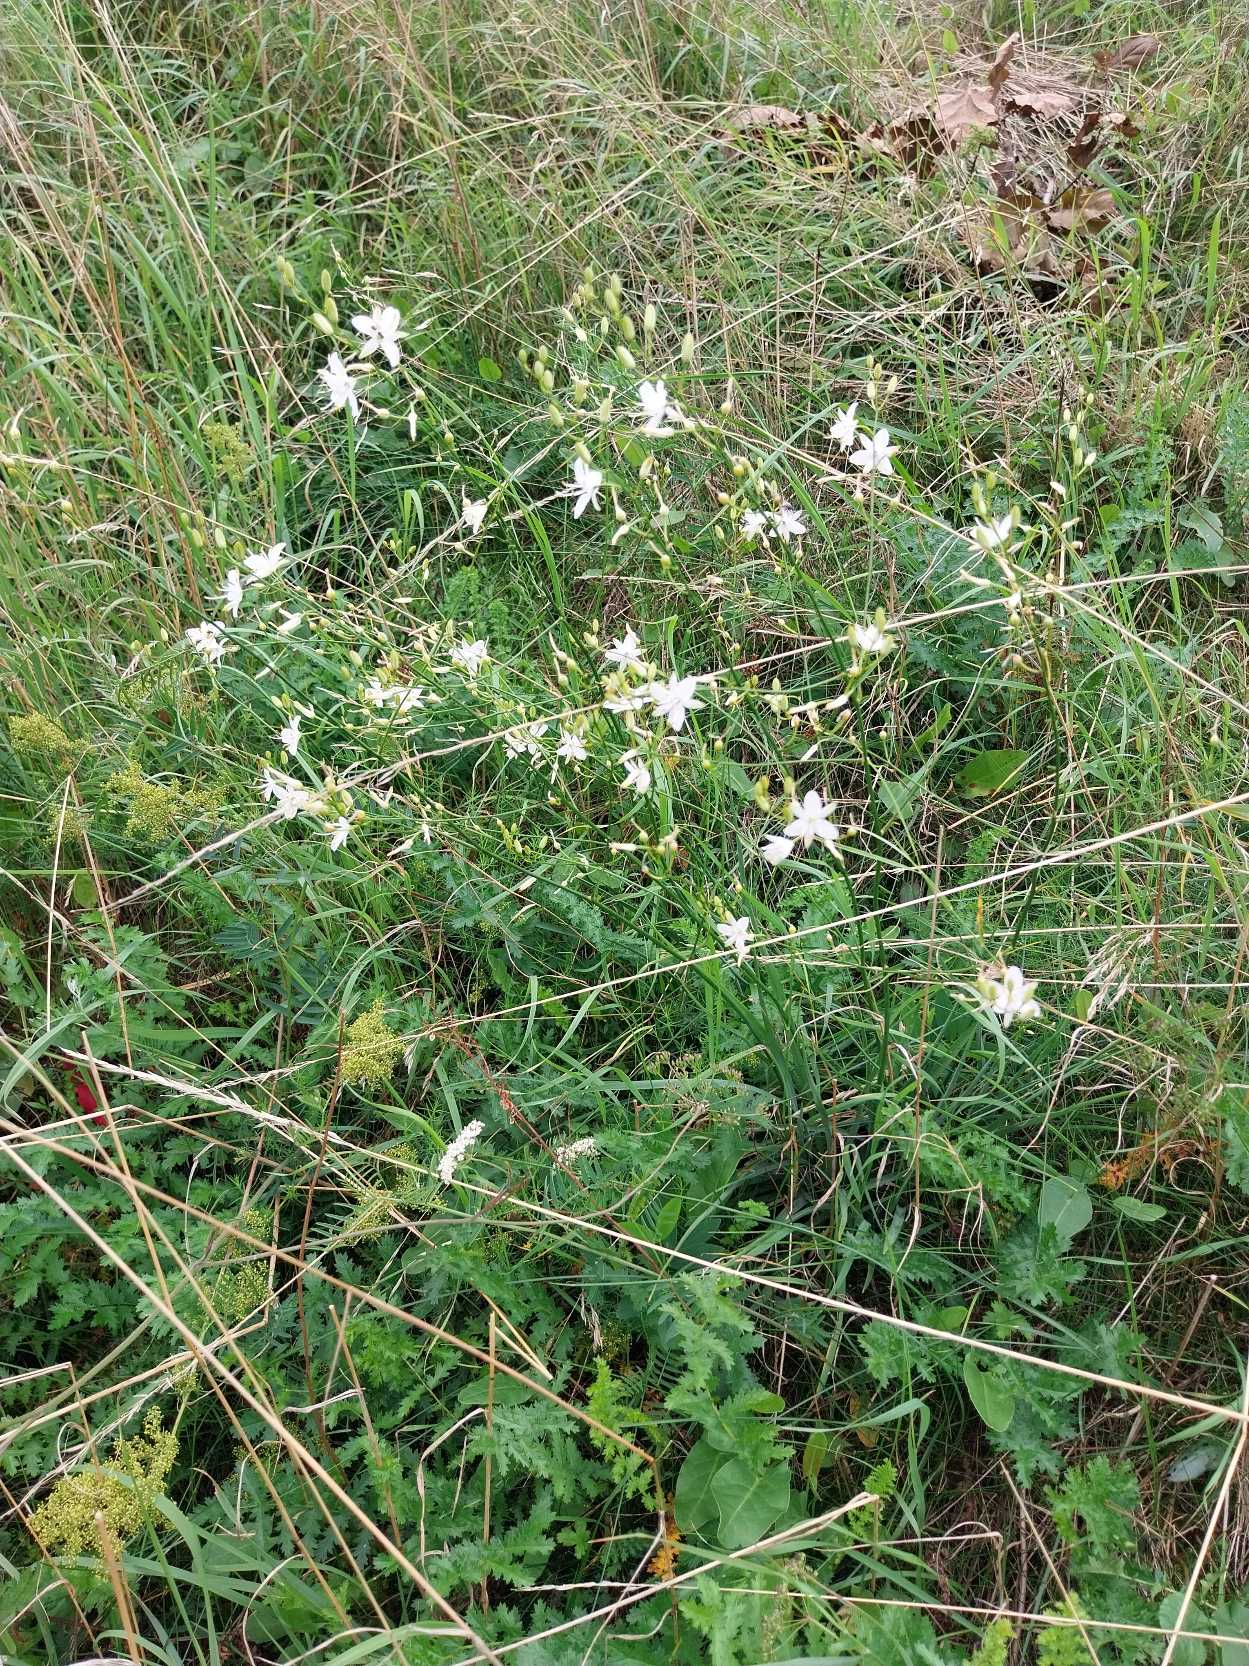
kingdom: Plantae
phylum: Tracheophyta
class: Liliopsida
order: Asparagales
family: Asparagaceae
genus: Anthericum
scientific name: Anthericum ramosum
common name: Grenet edderkopurt
